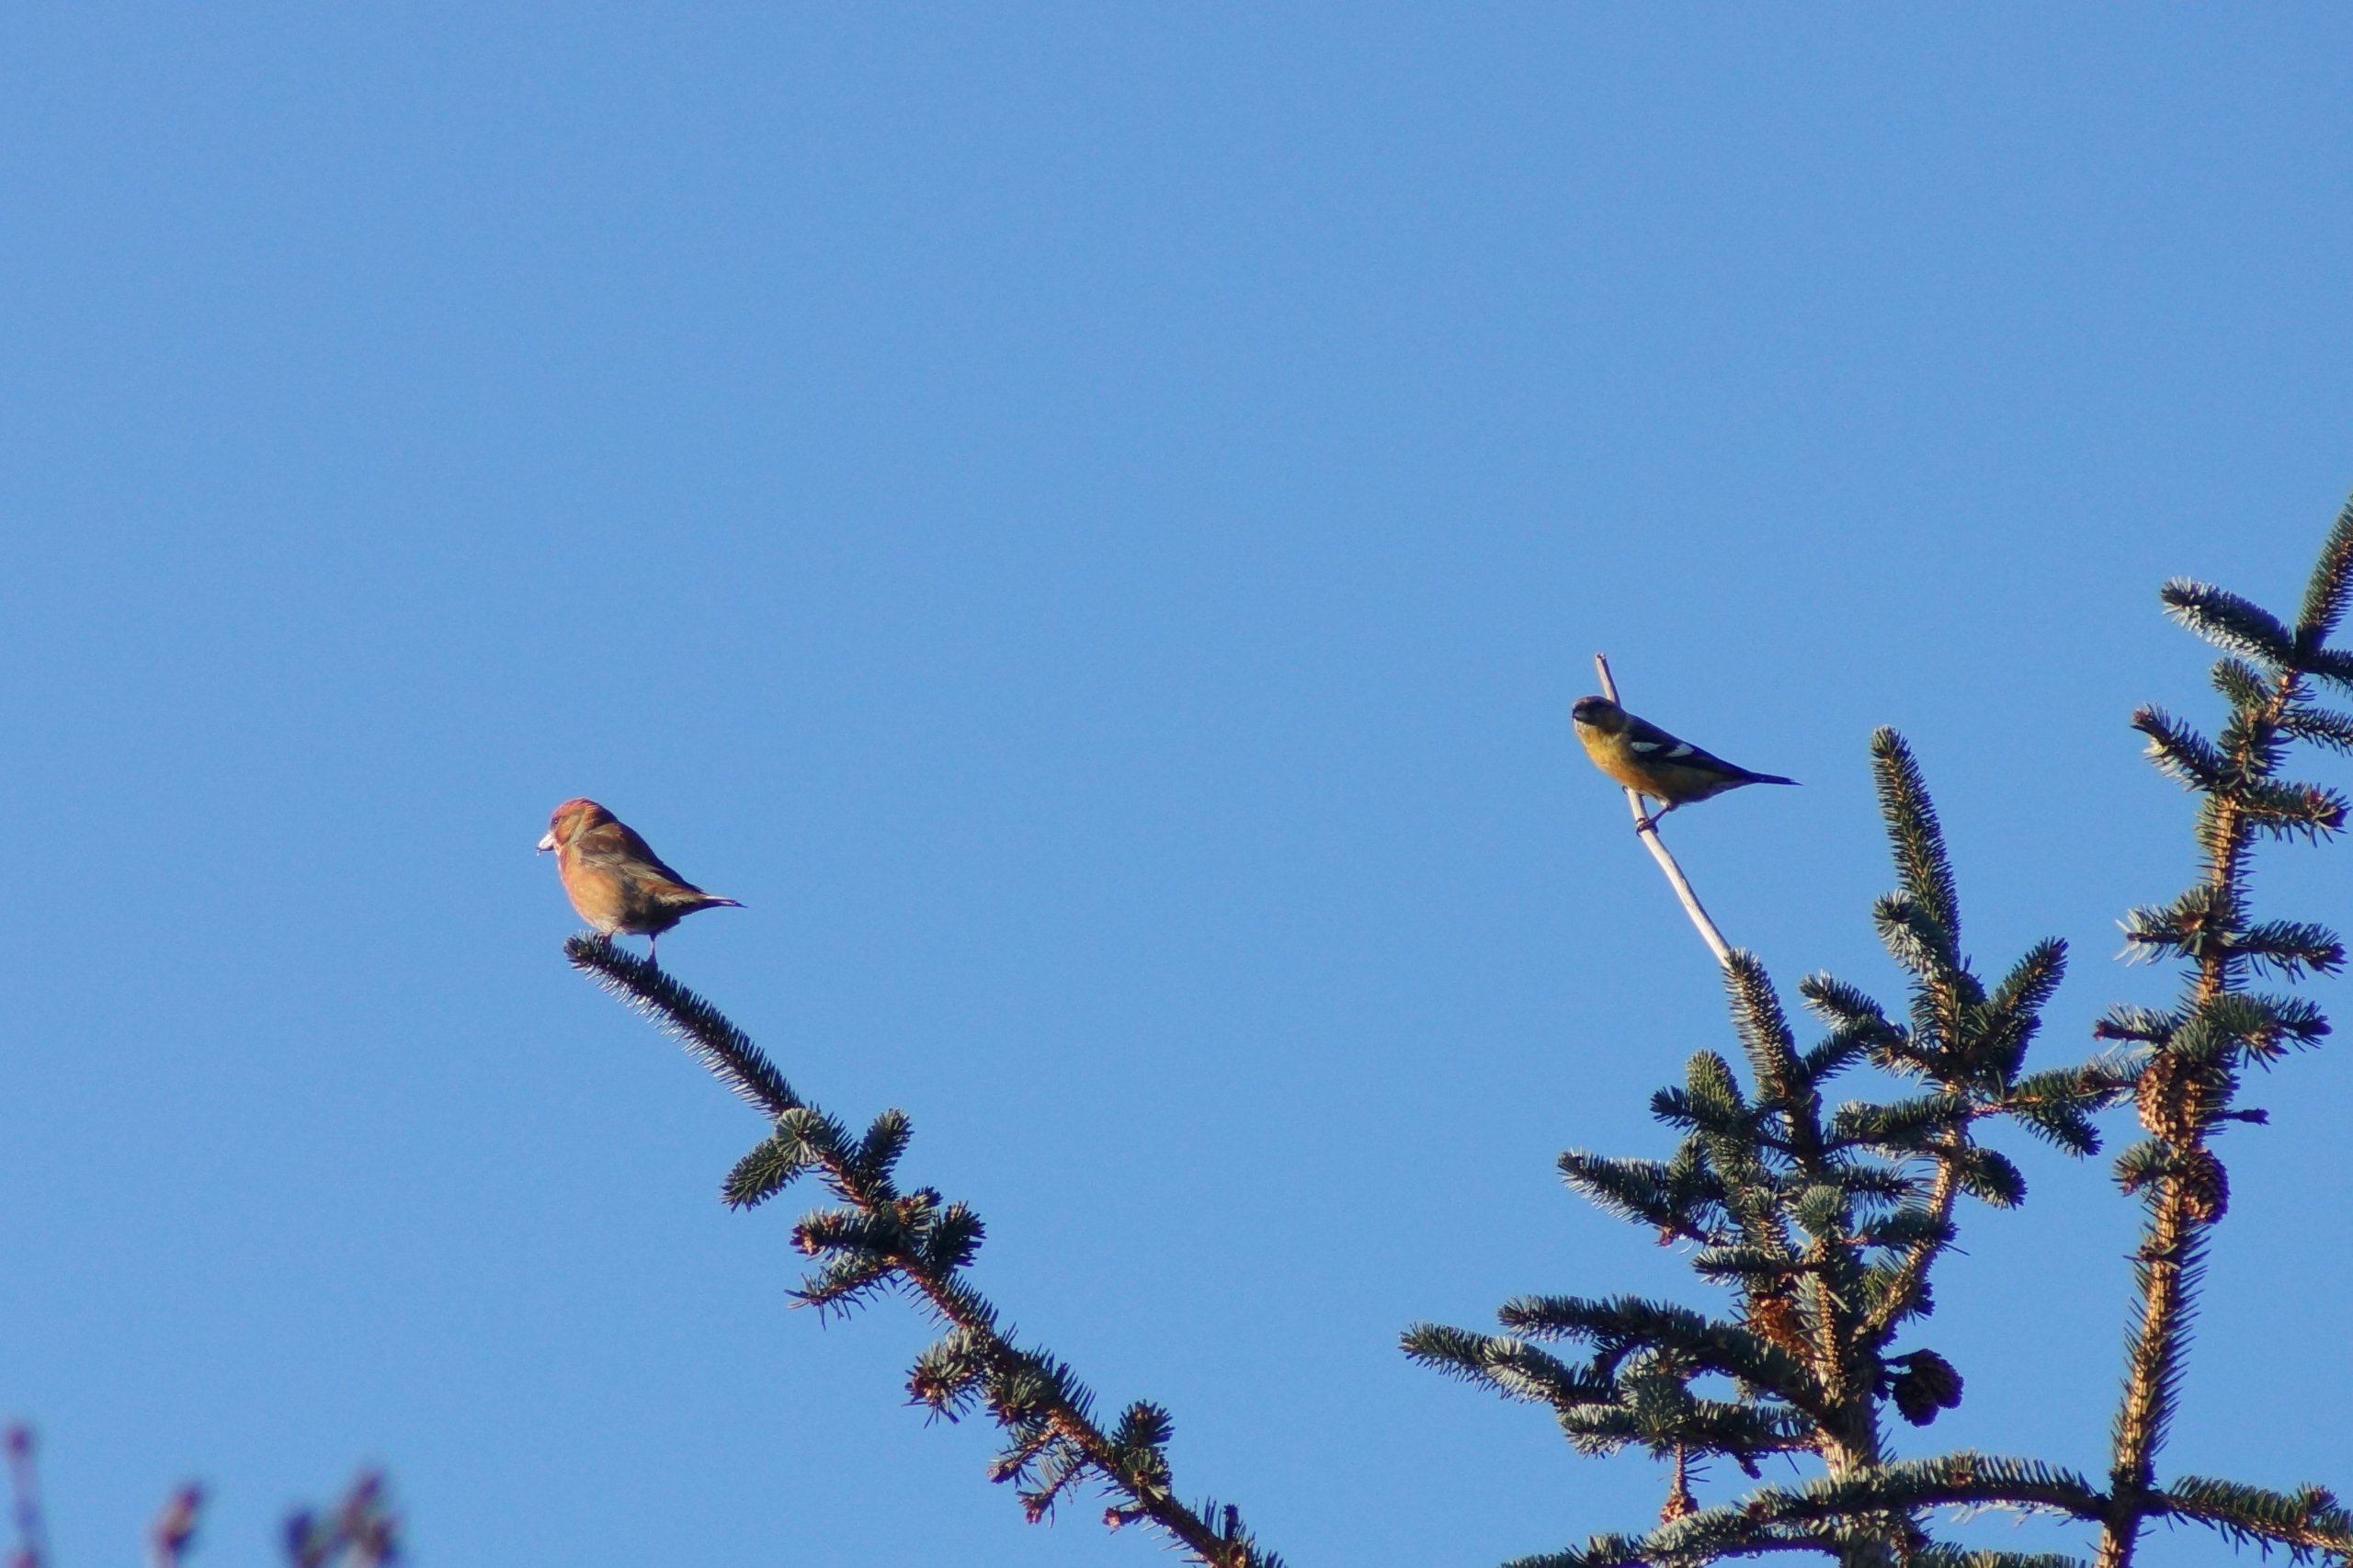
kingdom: Animalia
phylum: Chordata
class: Aves
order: Passeriformes
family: Fringillidae
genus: Loxia
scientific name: Loxia curvirostra
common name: Lille korsnæb
